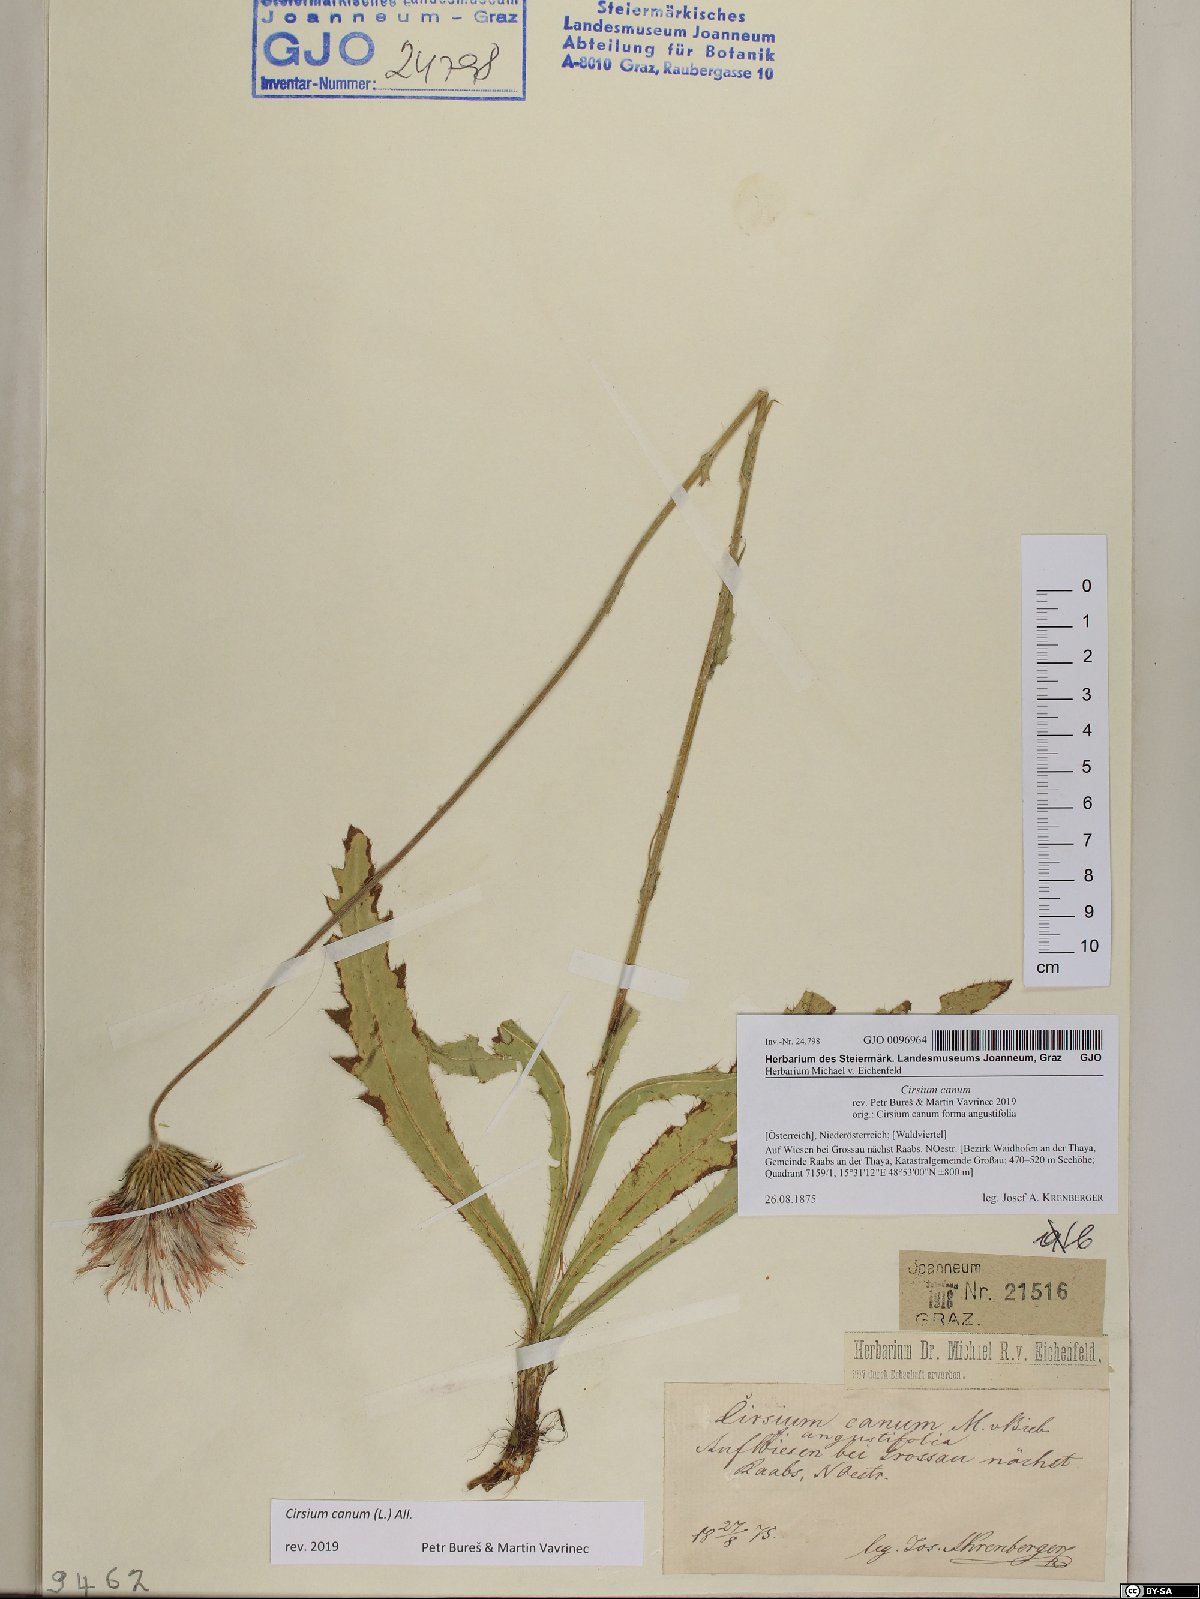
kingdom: Plantae
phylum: Tracheophyta
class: Magnoliopsida
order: Asterales
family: Asteraceae
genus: Cirsium
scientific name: Cirsium canum
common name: Queen anne's thistle
